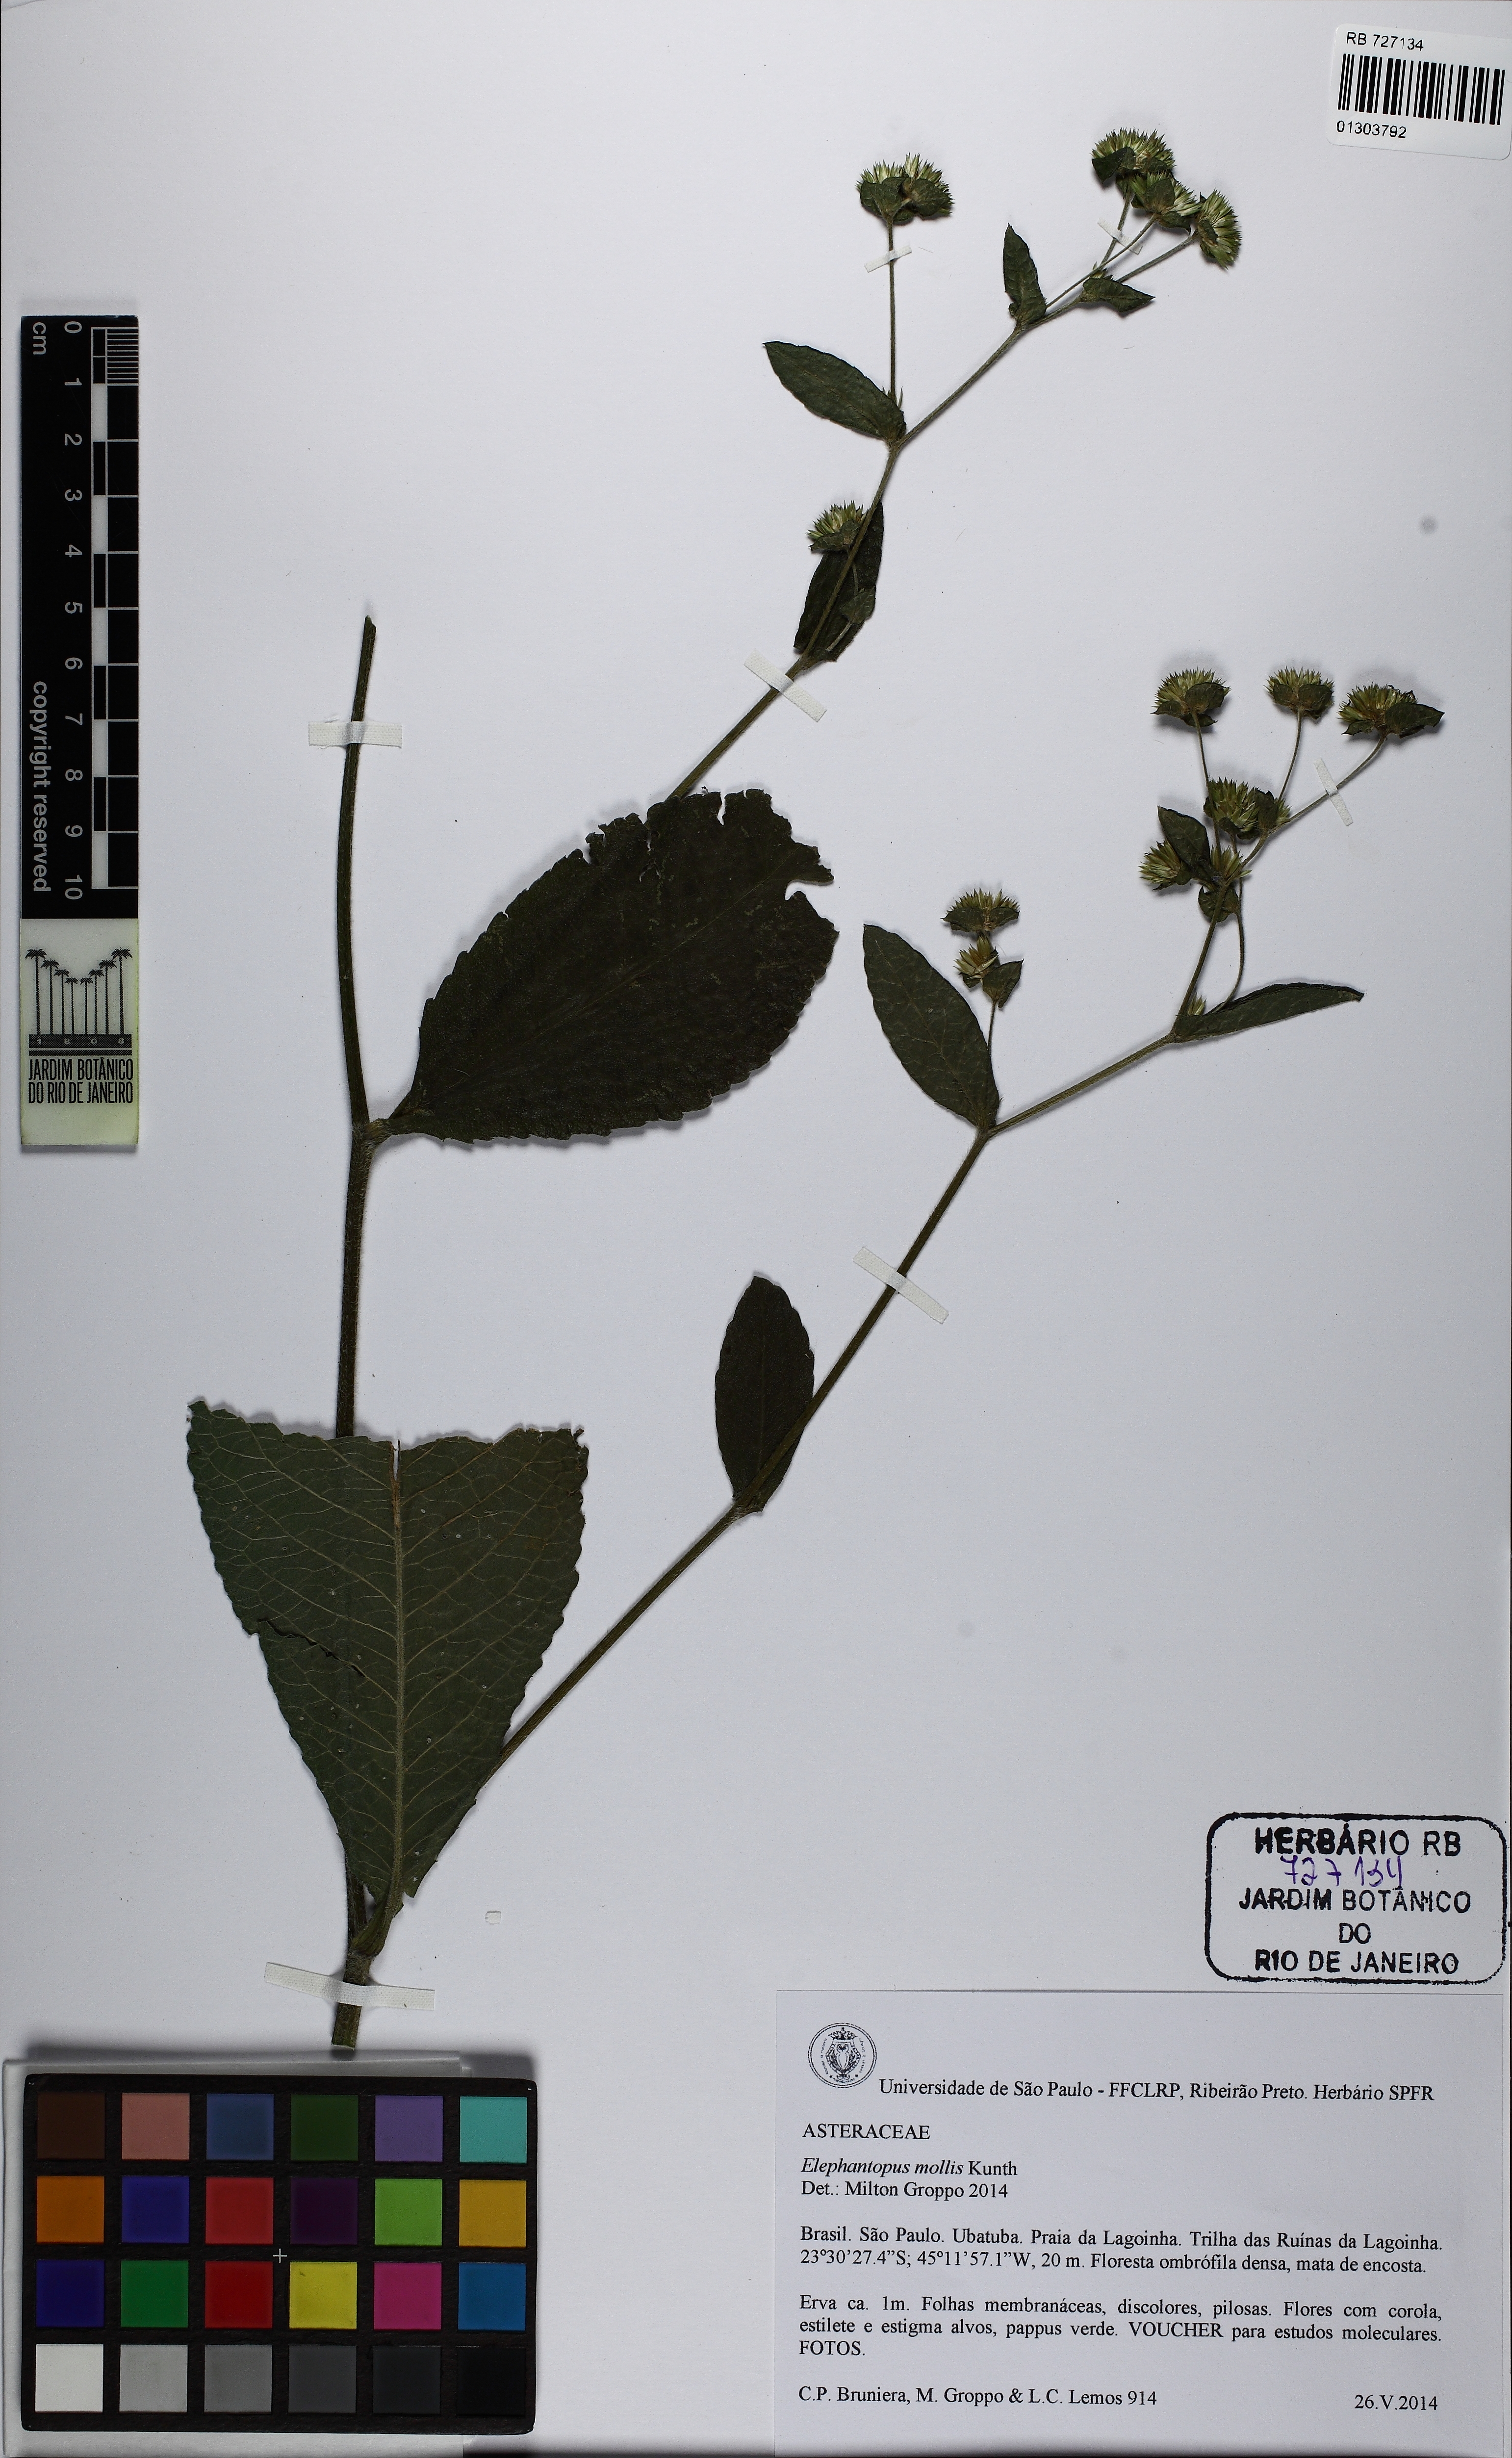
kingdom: Plantae
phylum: Tracheophyta
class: Magnoliopsida
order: Asterales
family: Asteraceae
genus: Elephantopus
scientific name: Elephantopus mollis
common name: Soft elephantsfoot
